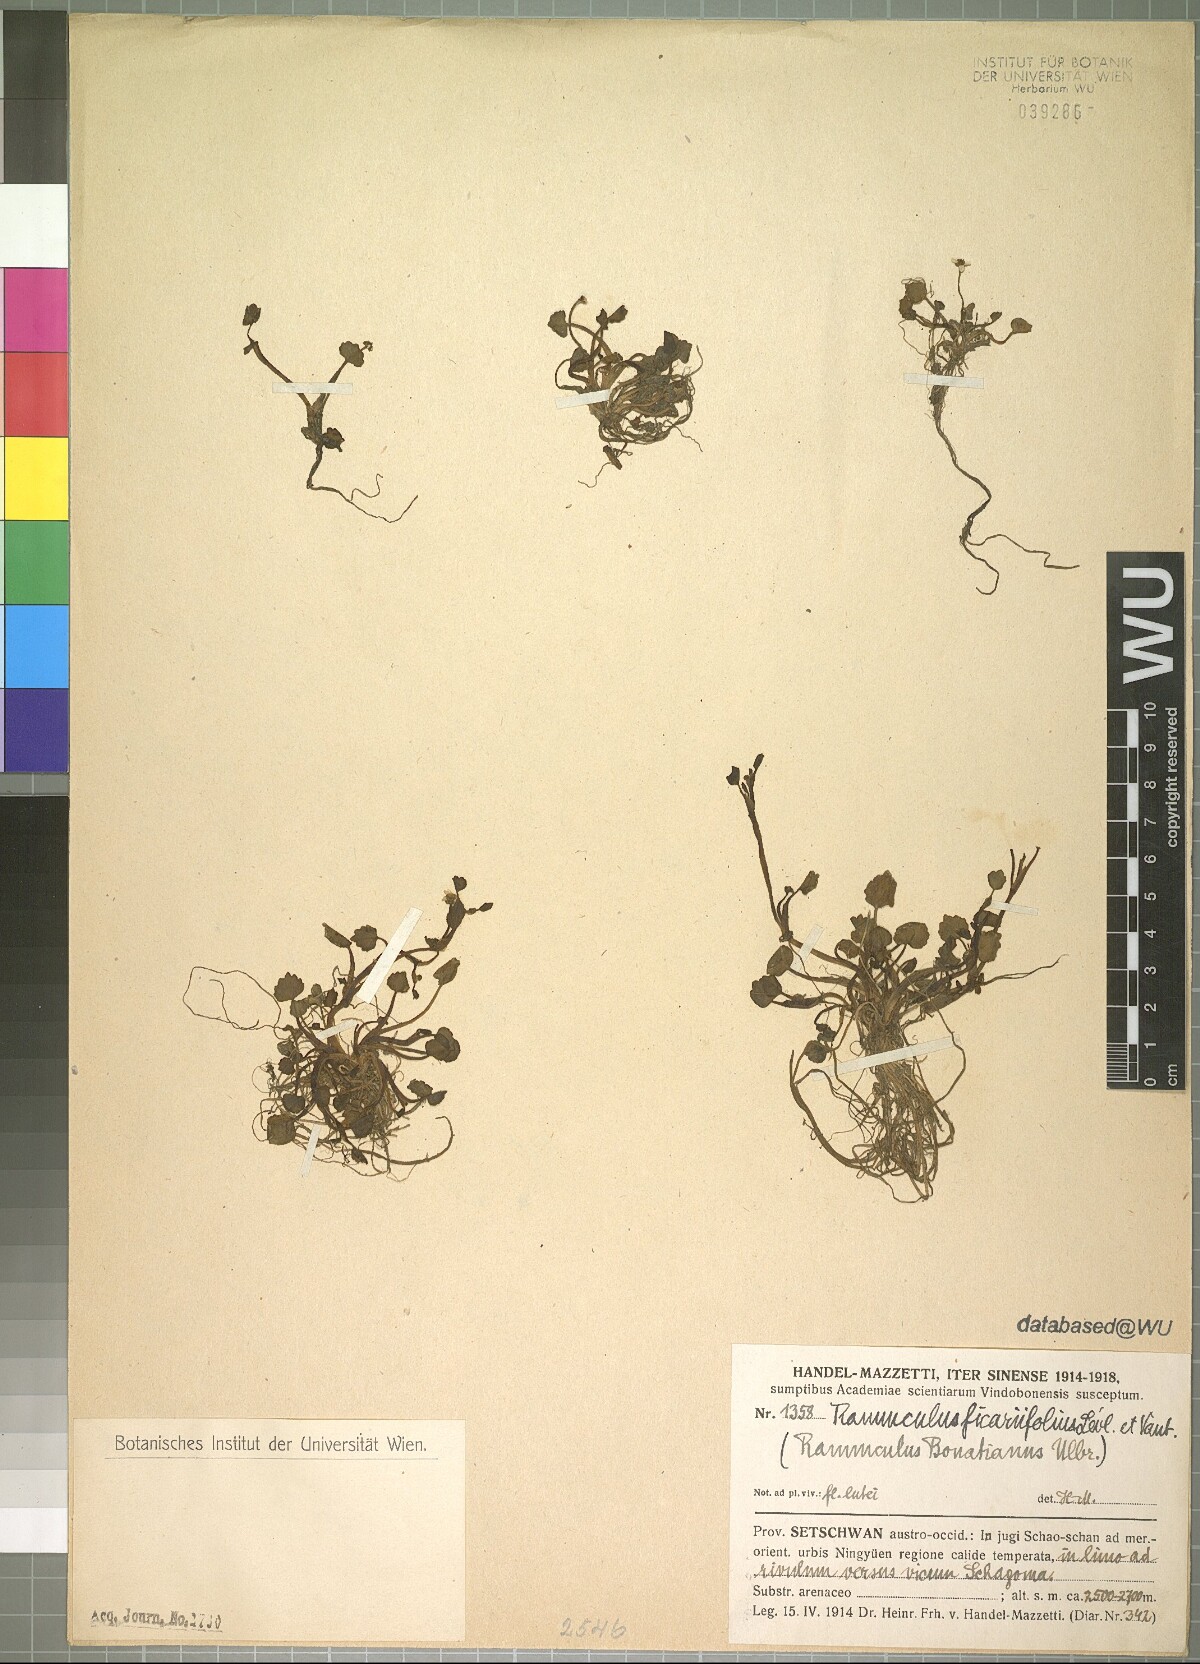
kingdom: Plantae
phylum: Tracheophyta
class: Magnoliopsida
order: Ranunculales
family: Ranunculaceae
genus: Ranunculus
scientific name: Ranunculus microphyllus
